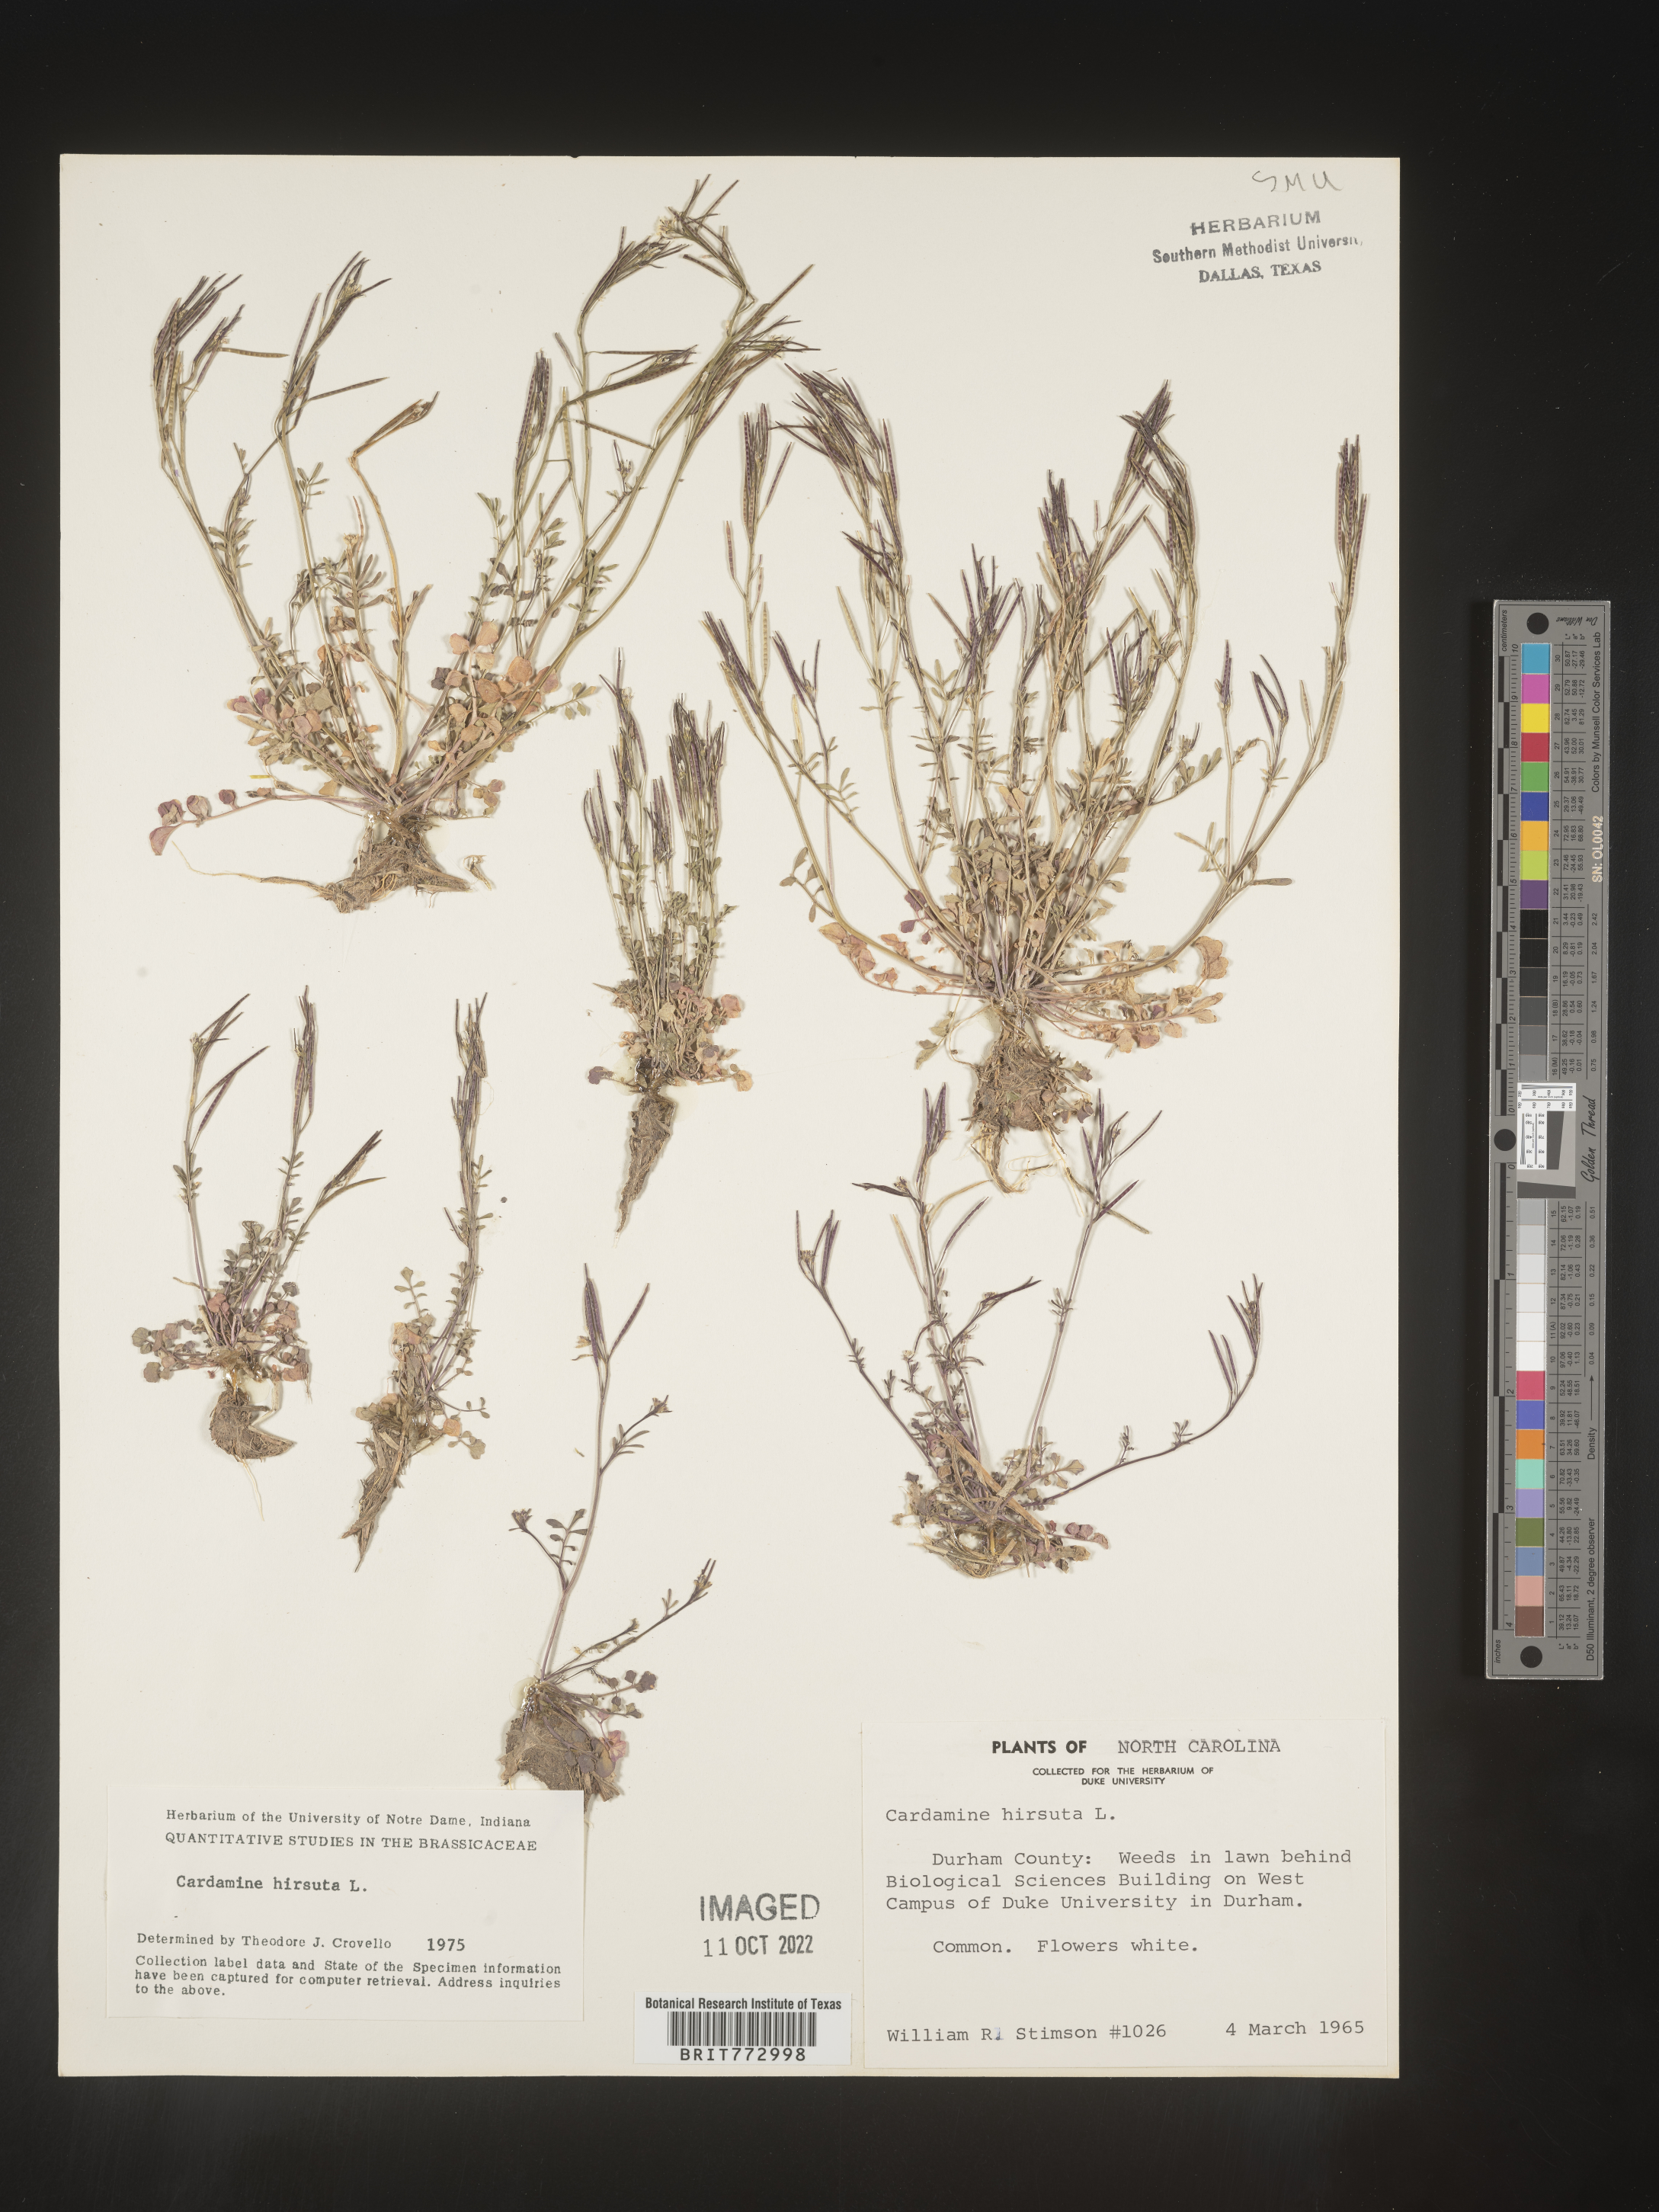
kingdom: Plantae
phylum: Tracheophyta
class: Magnoliopsida
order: Brassicales
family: Brassicaceae
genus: Cardamine
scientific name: Cardamine hirsuta
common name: Hairy bittercress
